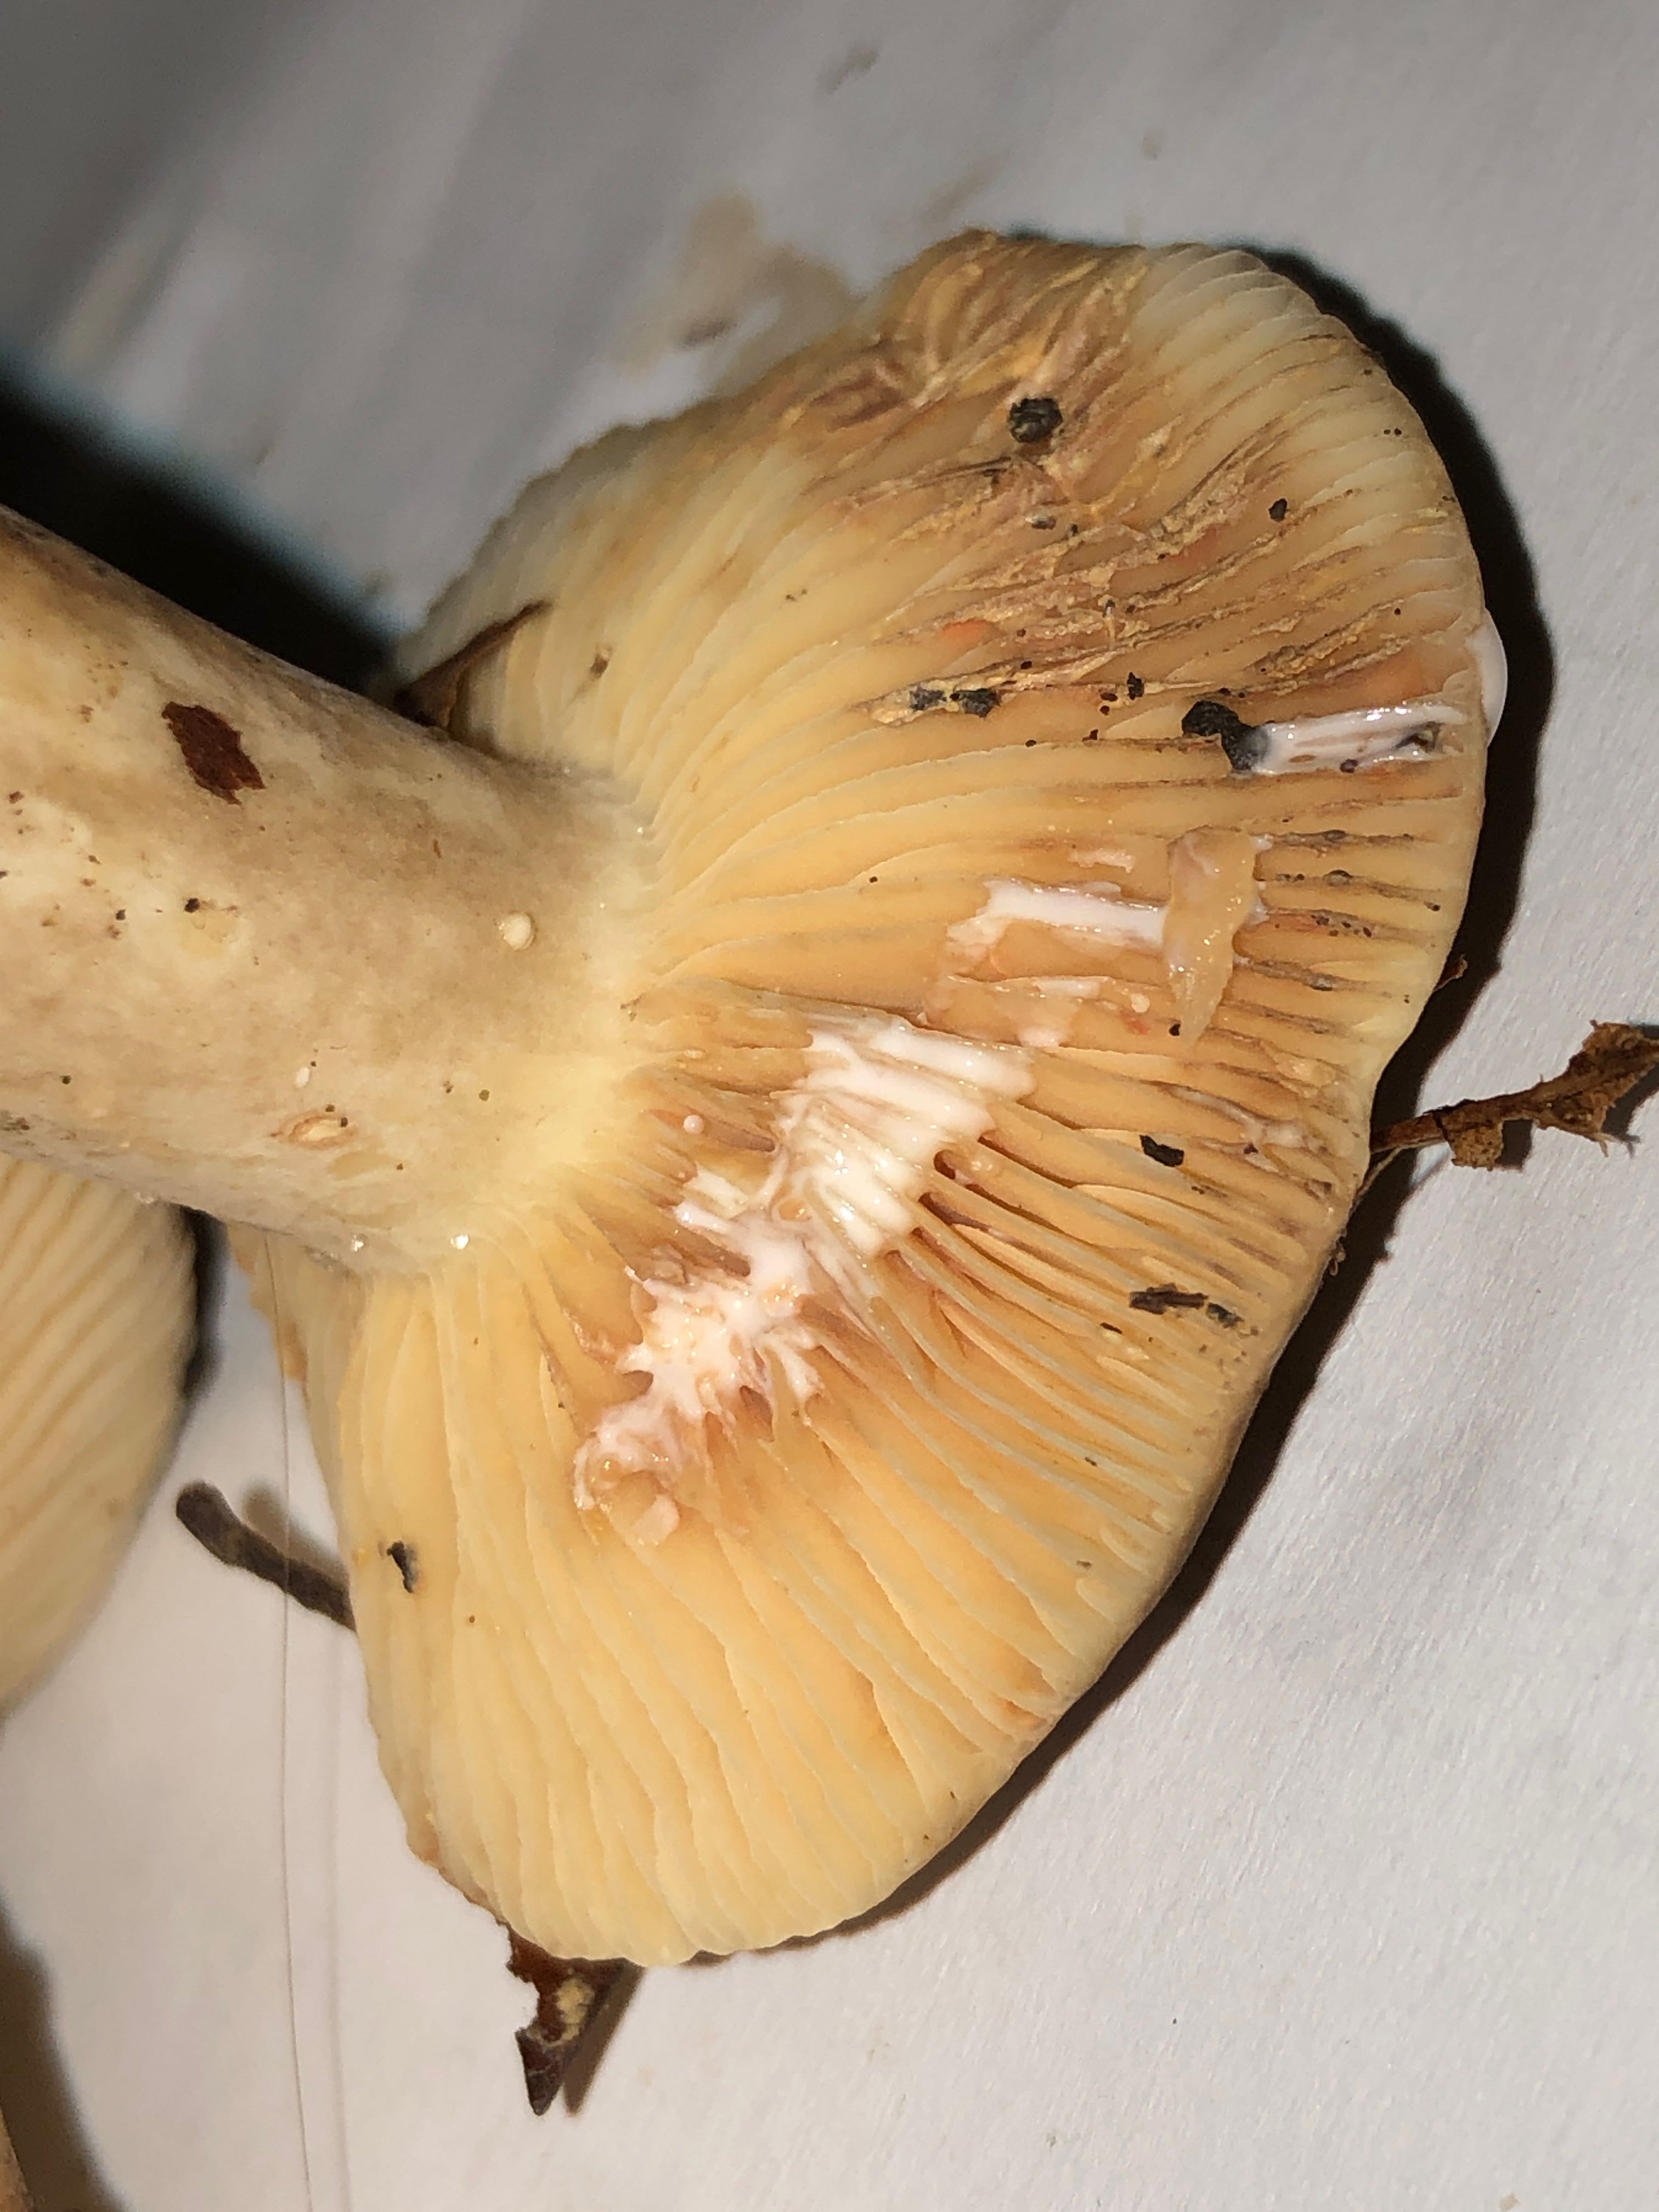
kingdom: Fungi
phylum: Basidiomycota
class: Agaricomycetes
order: Russulales
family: Russulaceae
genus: Lactarius
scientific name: Lactarius azonites
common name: røggrå mælkehat
